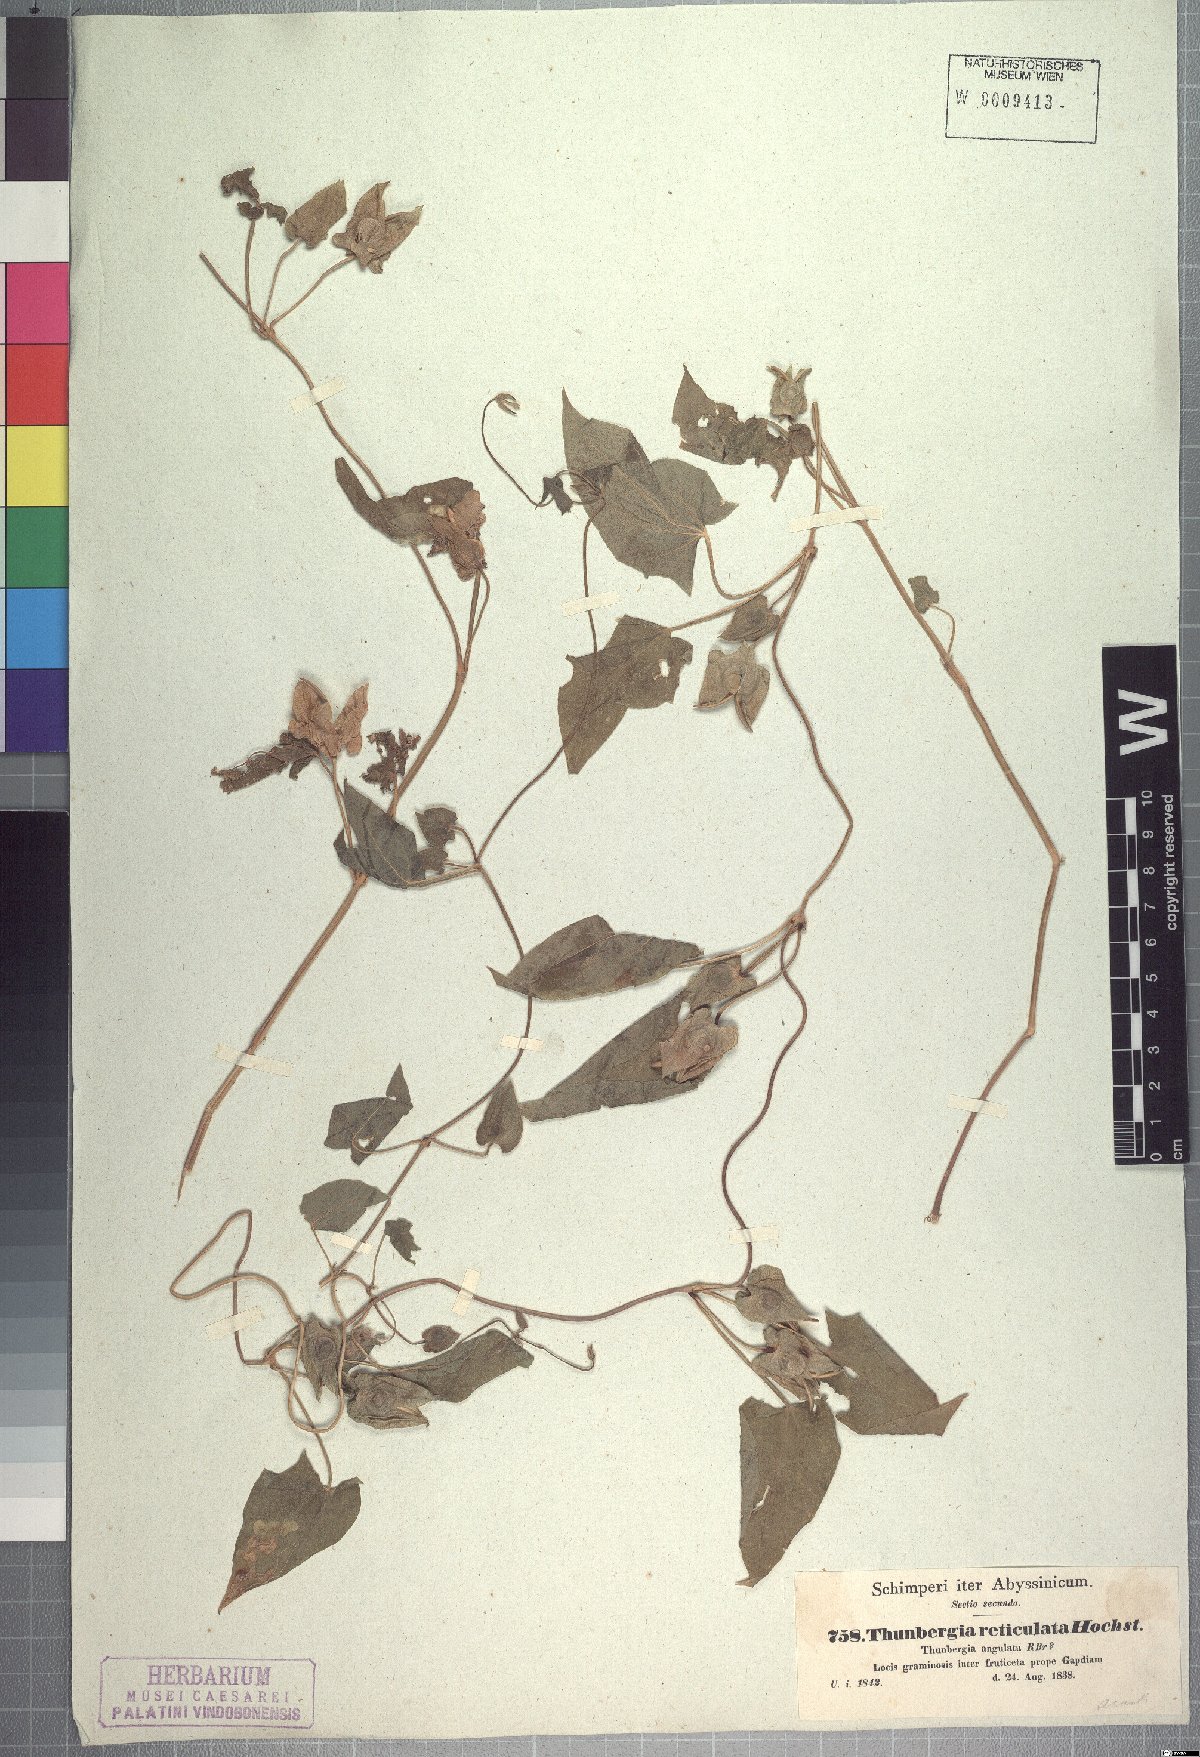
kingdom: Plantae
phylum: Tracheophyta
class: Magnoliopsida
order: Lamiales
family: Acanthaceae
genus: Thunbergia
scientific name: Thunbergia alata
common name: Blackeyed susan vine
